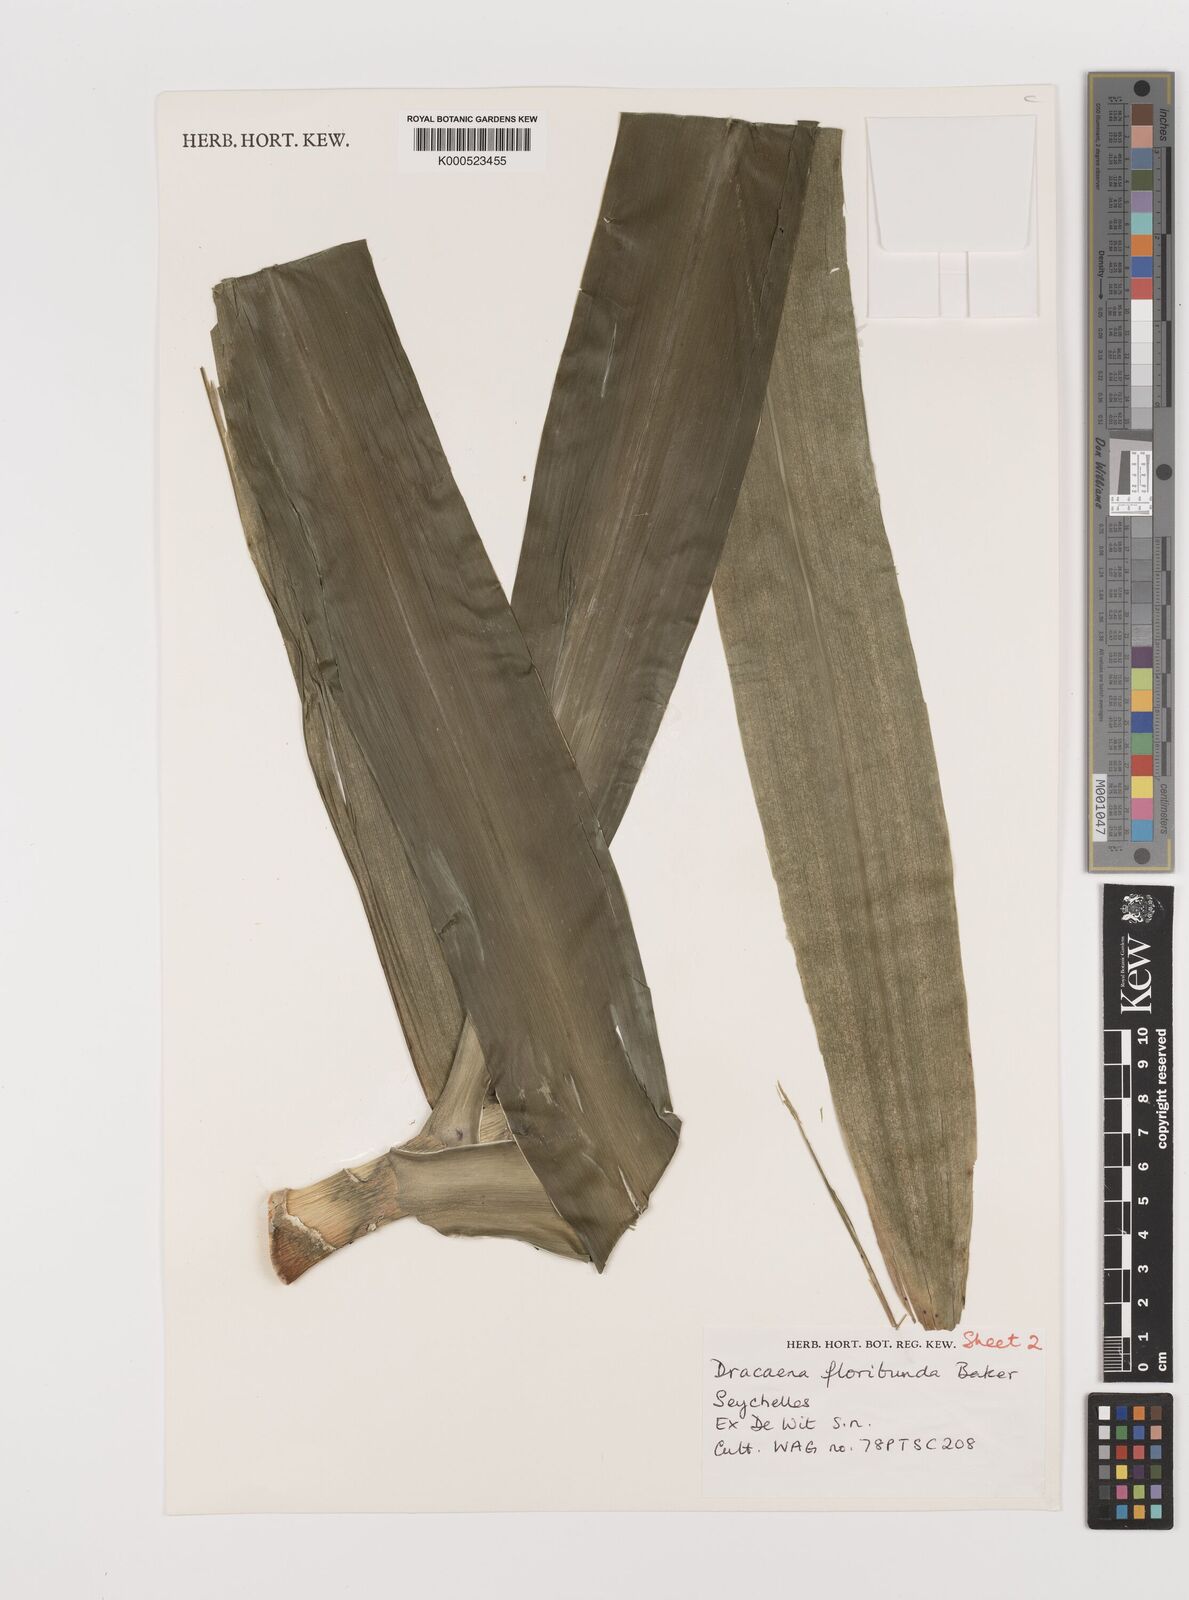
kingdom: Plantae
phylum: Tracheophyta
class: Liliopsida
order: Asparagales
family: Asparagaceae
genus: Dracaena
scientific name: Dracaena floribunda
